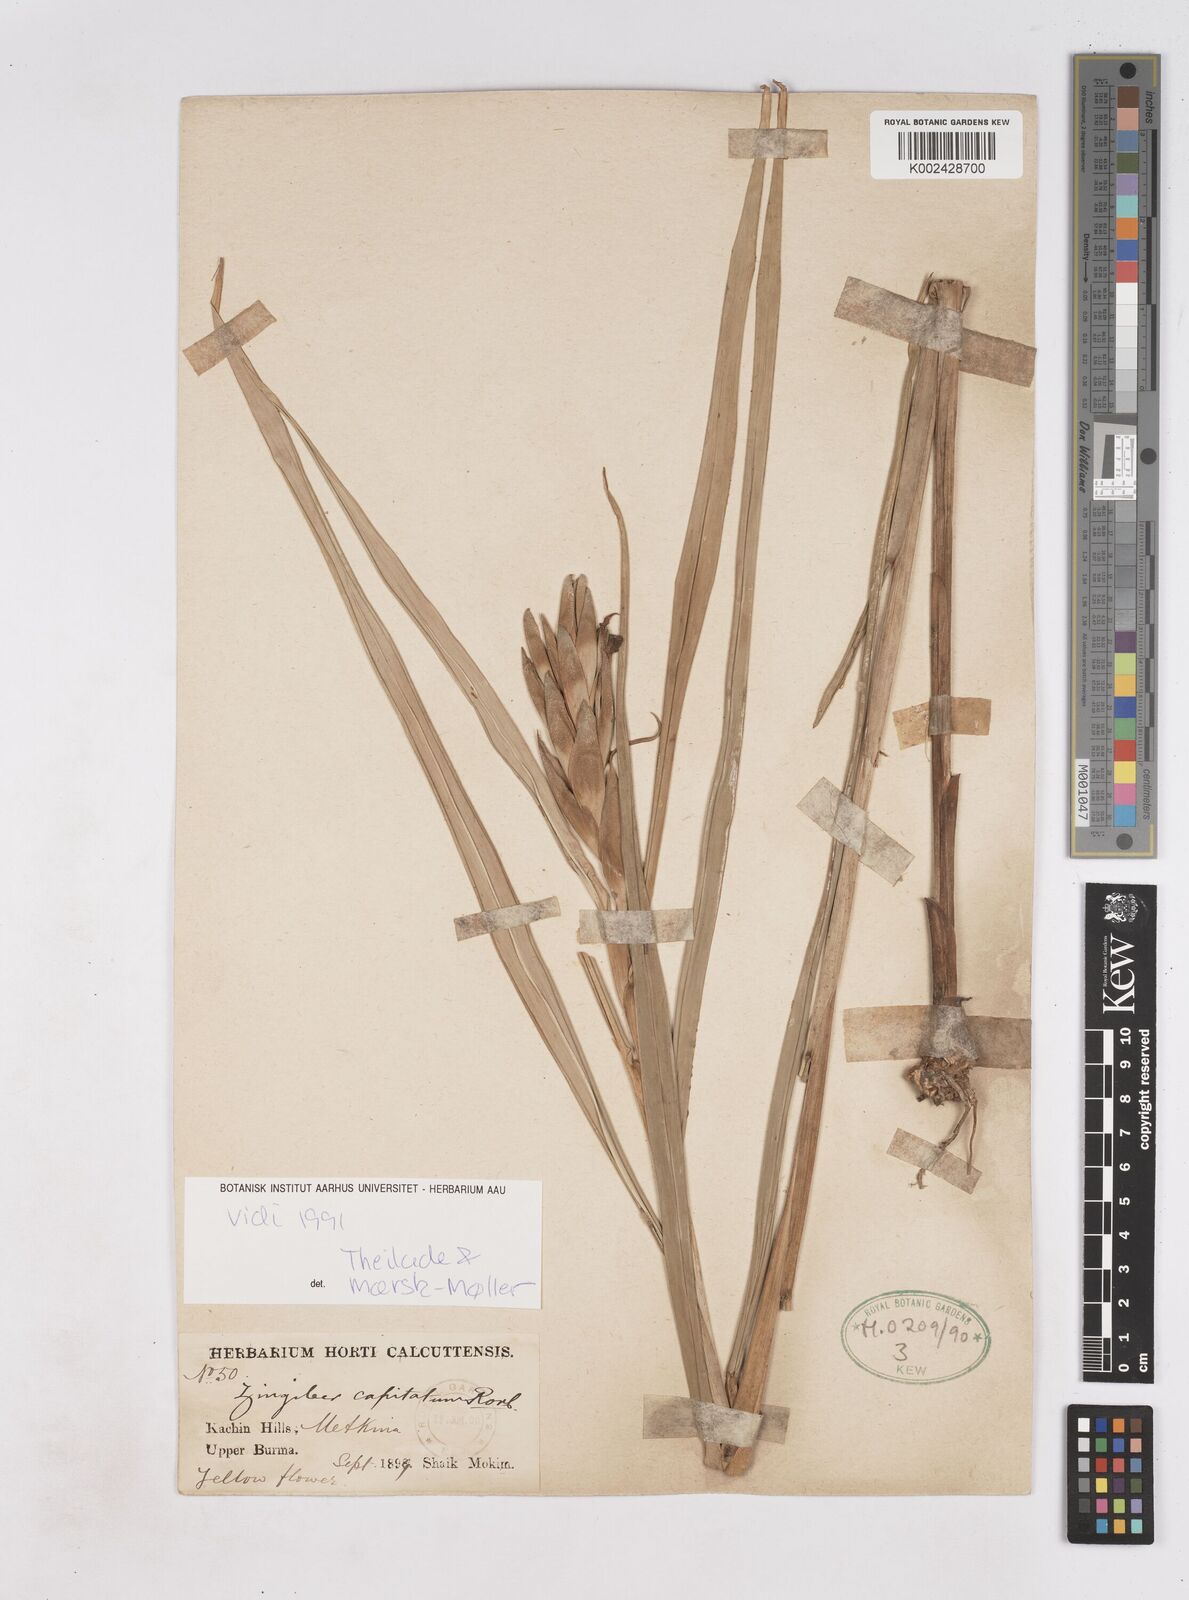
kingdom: Plantae
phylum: Tracheophyta
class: Liliopsida
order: Zingiberales
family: Zingiberaceae
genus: Zingiber
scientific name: Zingiber capitatum
